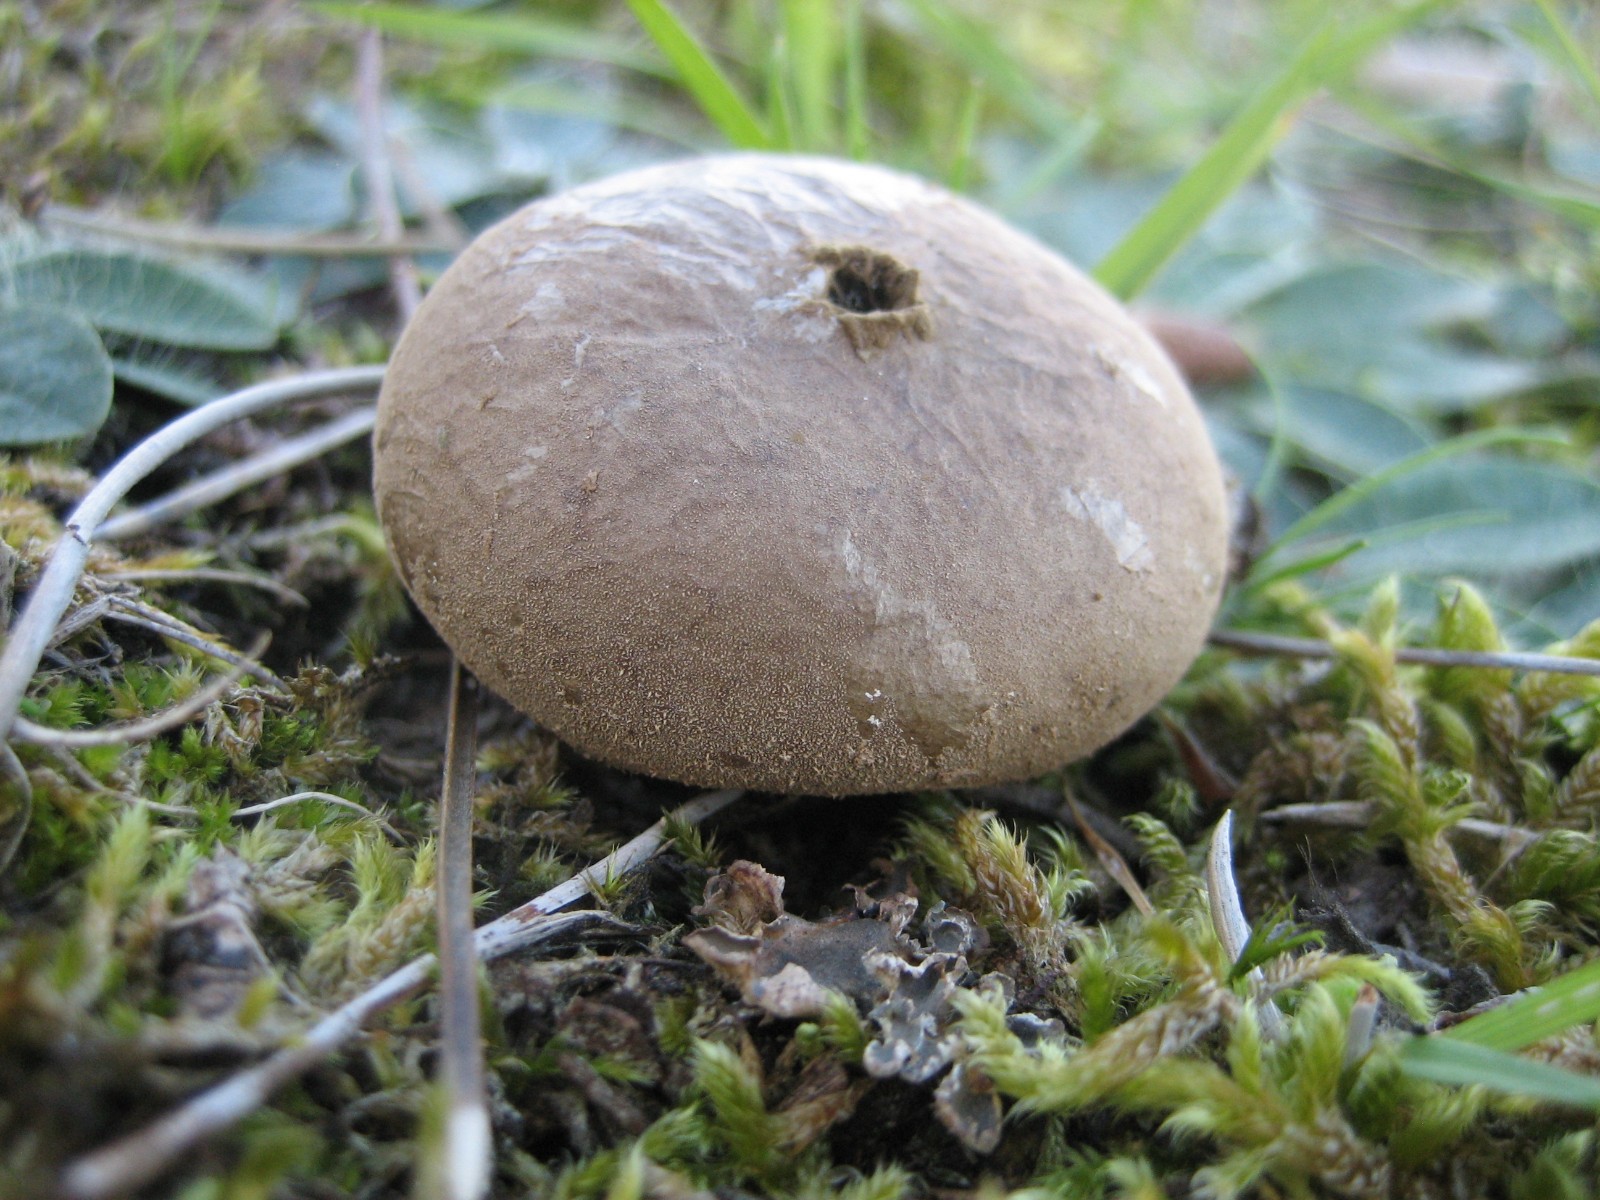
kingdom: Fungi
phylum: Basidiomycota
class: Agaricomycetes
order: Agaricales
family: Lycoperdaceae
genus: Bovista
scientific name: Bovista
